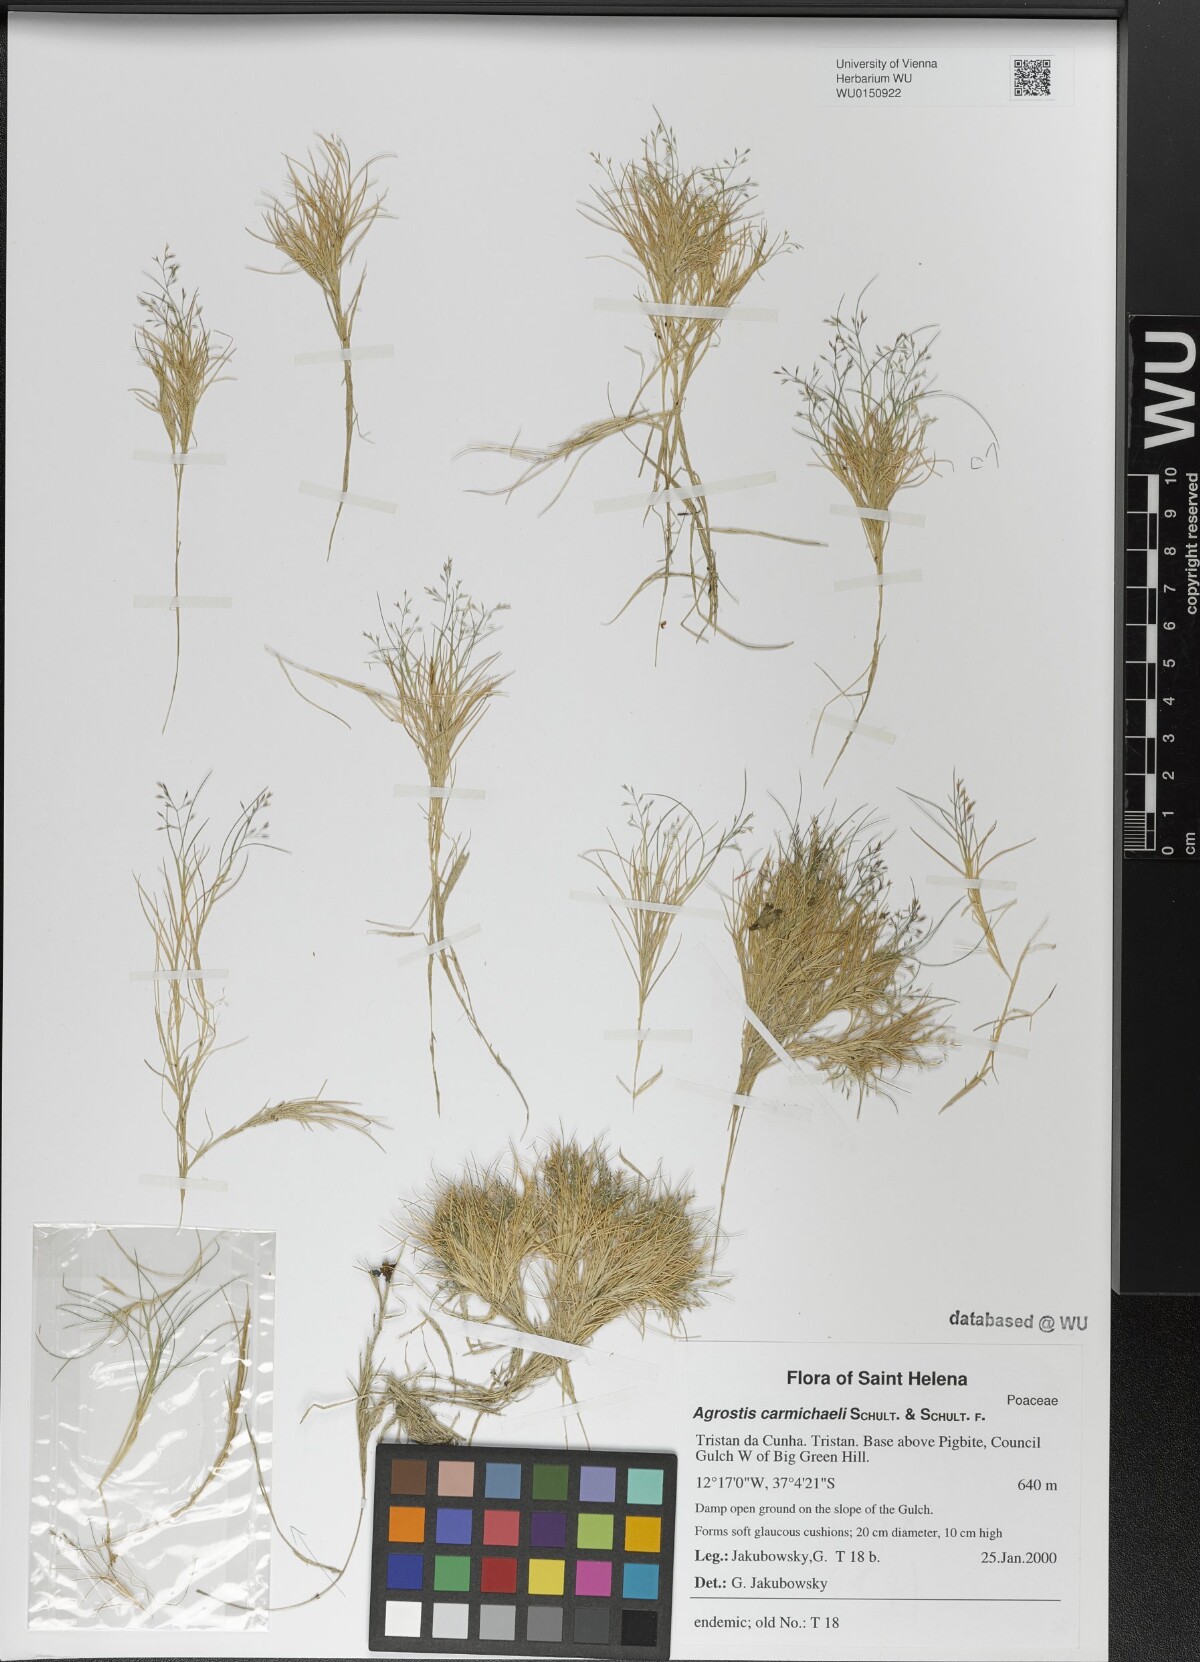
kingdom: Plantae
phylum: Tracheophyta
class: Liliopsida
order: Poales
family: Poaceae
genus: Agrostis
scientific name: Agrostis carmichaelii
